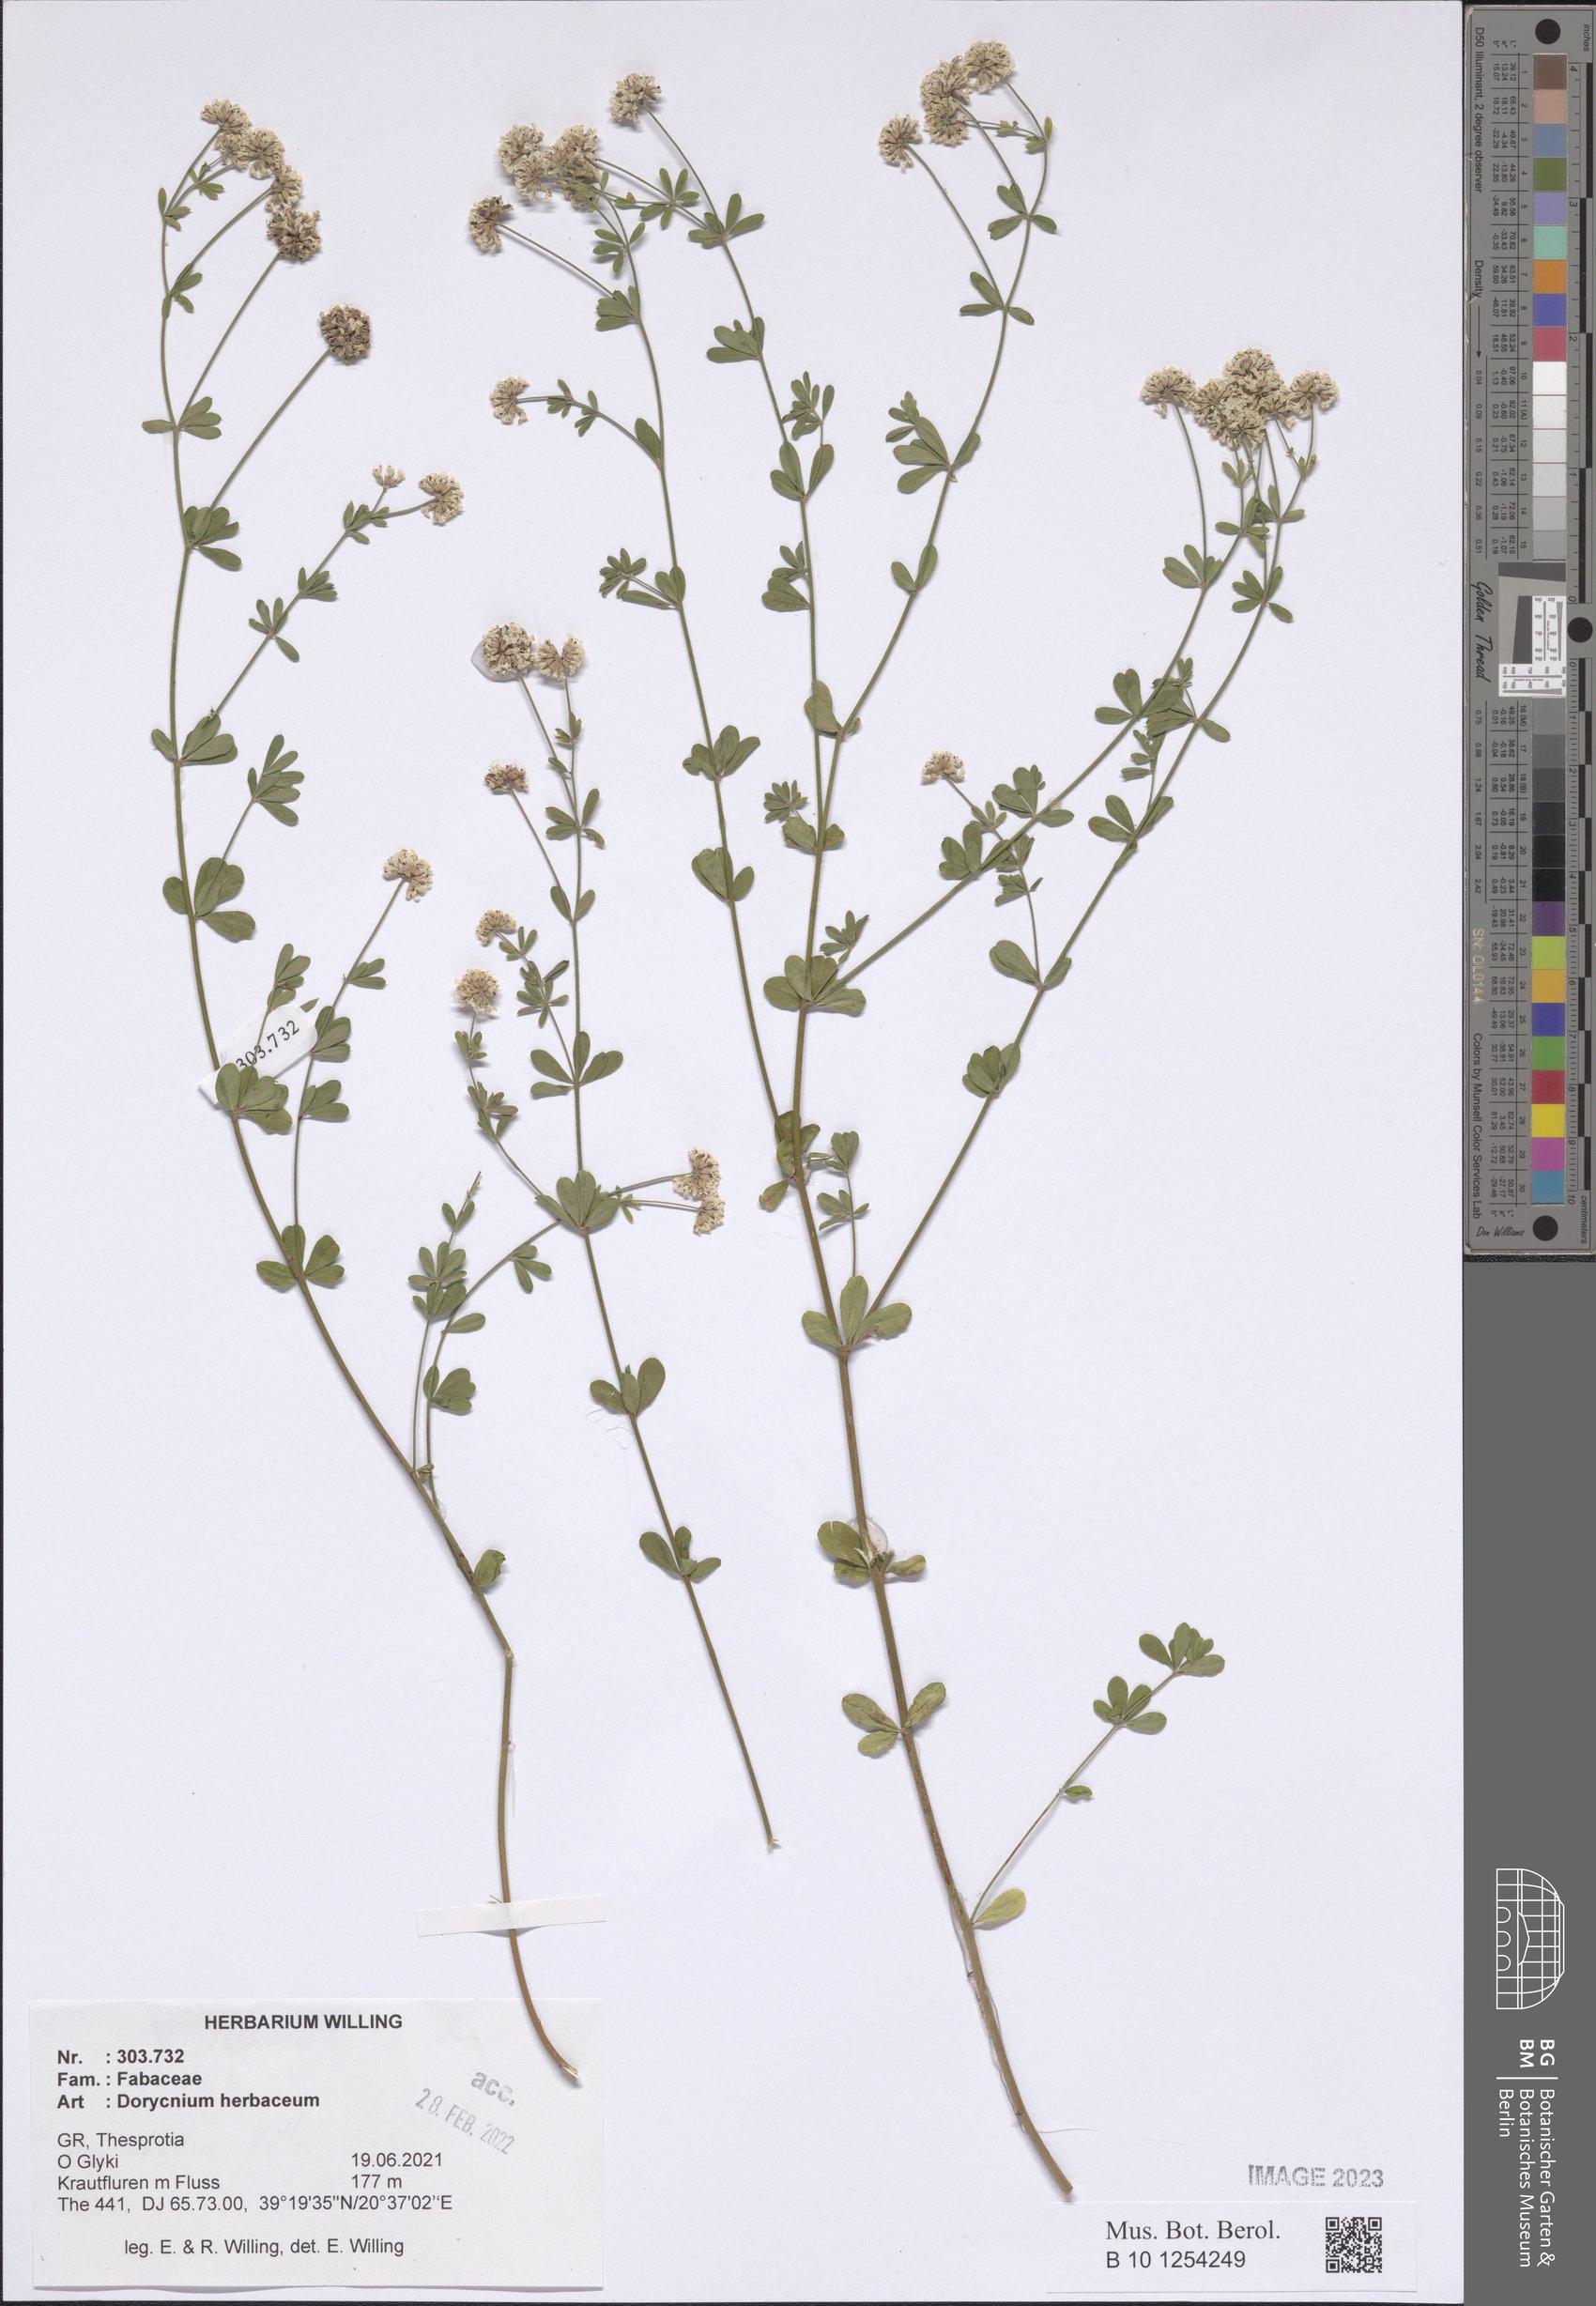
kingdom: Plantae
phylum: Tracheophyta
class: Magnoliopsida
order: Fabales
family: Fabaceae
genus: Lotus
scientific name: Lotus herbaceus
